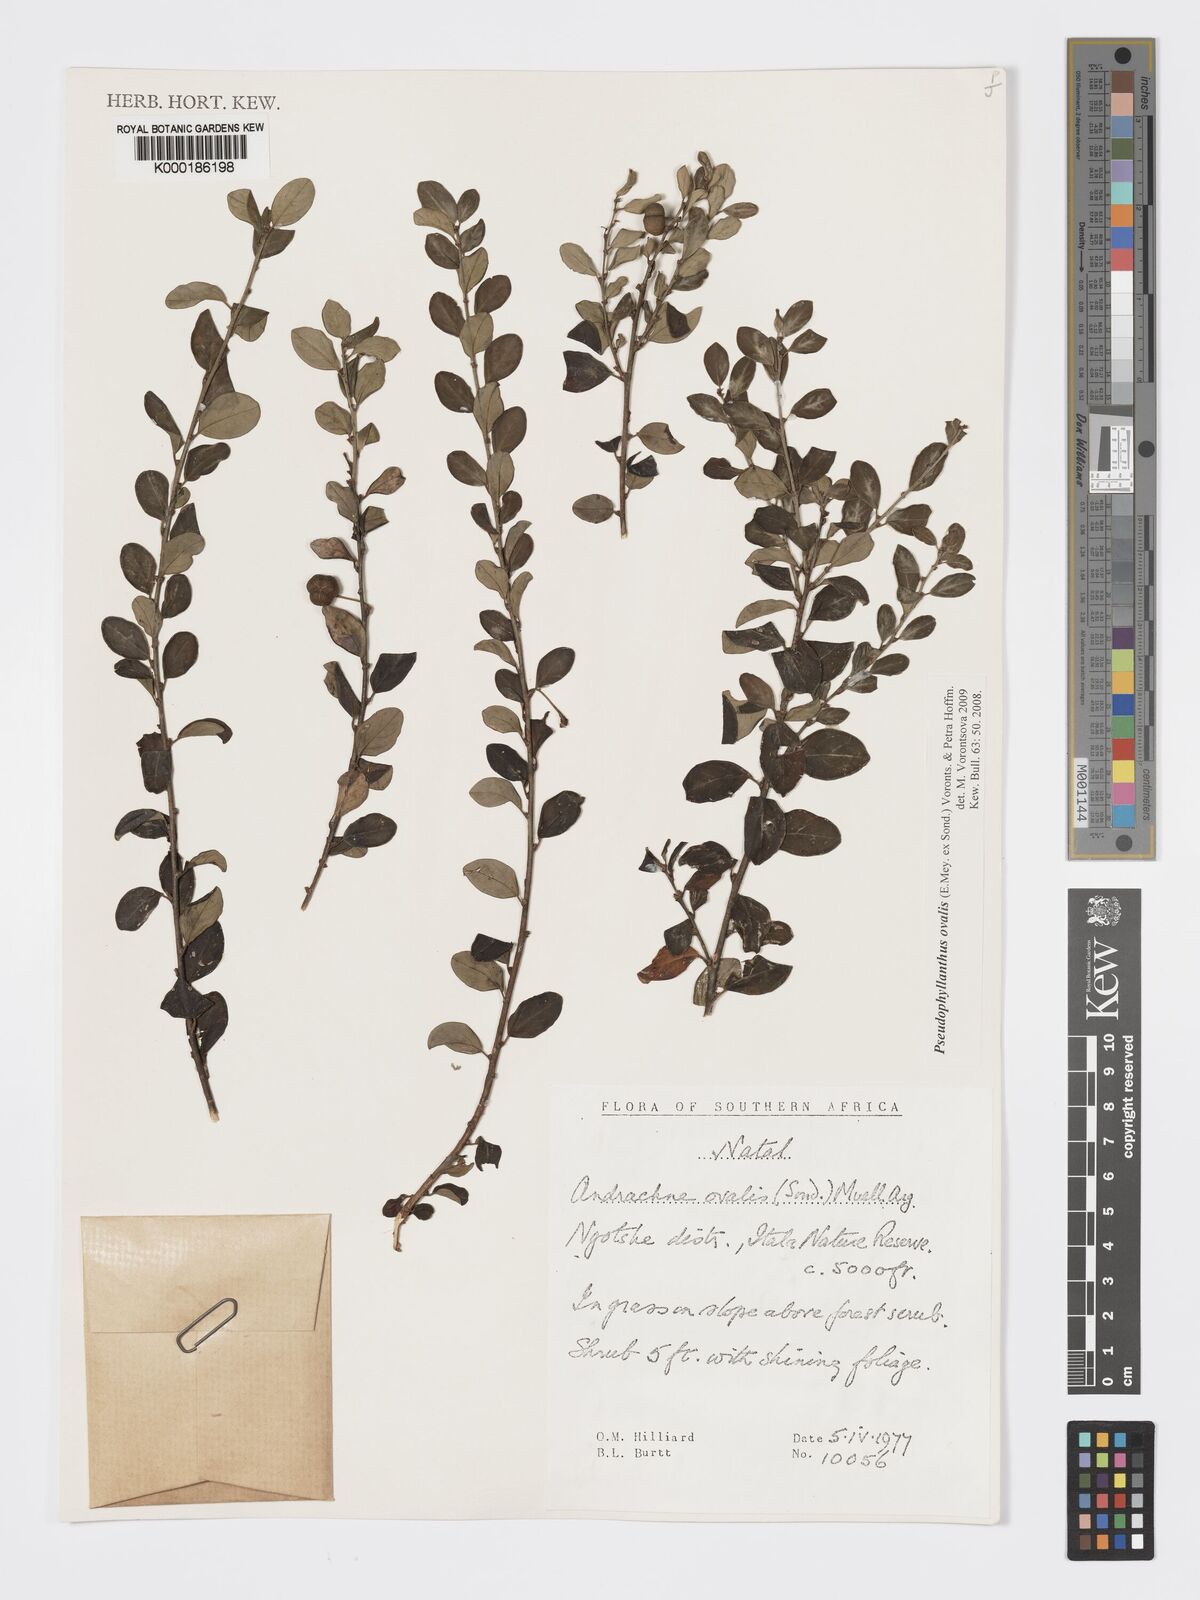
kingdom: Plantae
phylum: Tracheophyta
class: Magnoliopsida
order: Malpighiales
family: Phyllanthaceae
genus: Pseudophyllanthus
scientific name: Pseudophyllanthus ovalis
